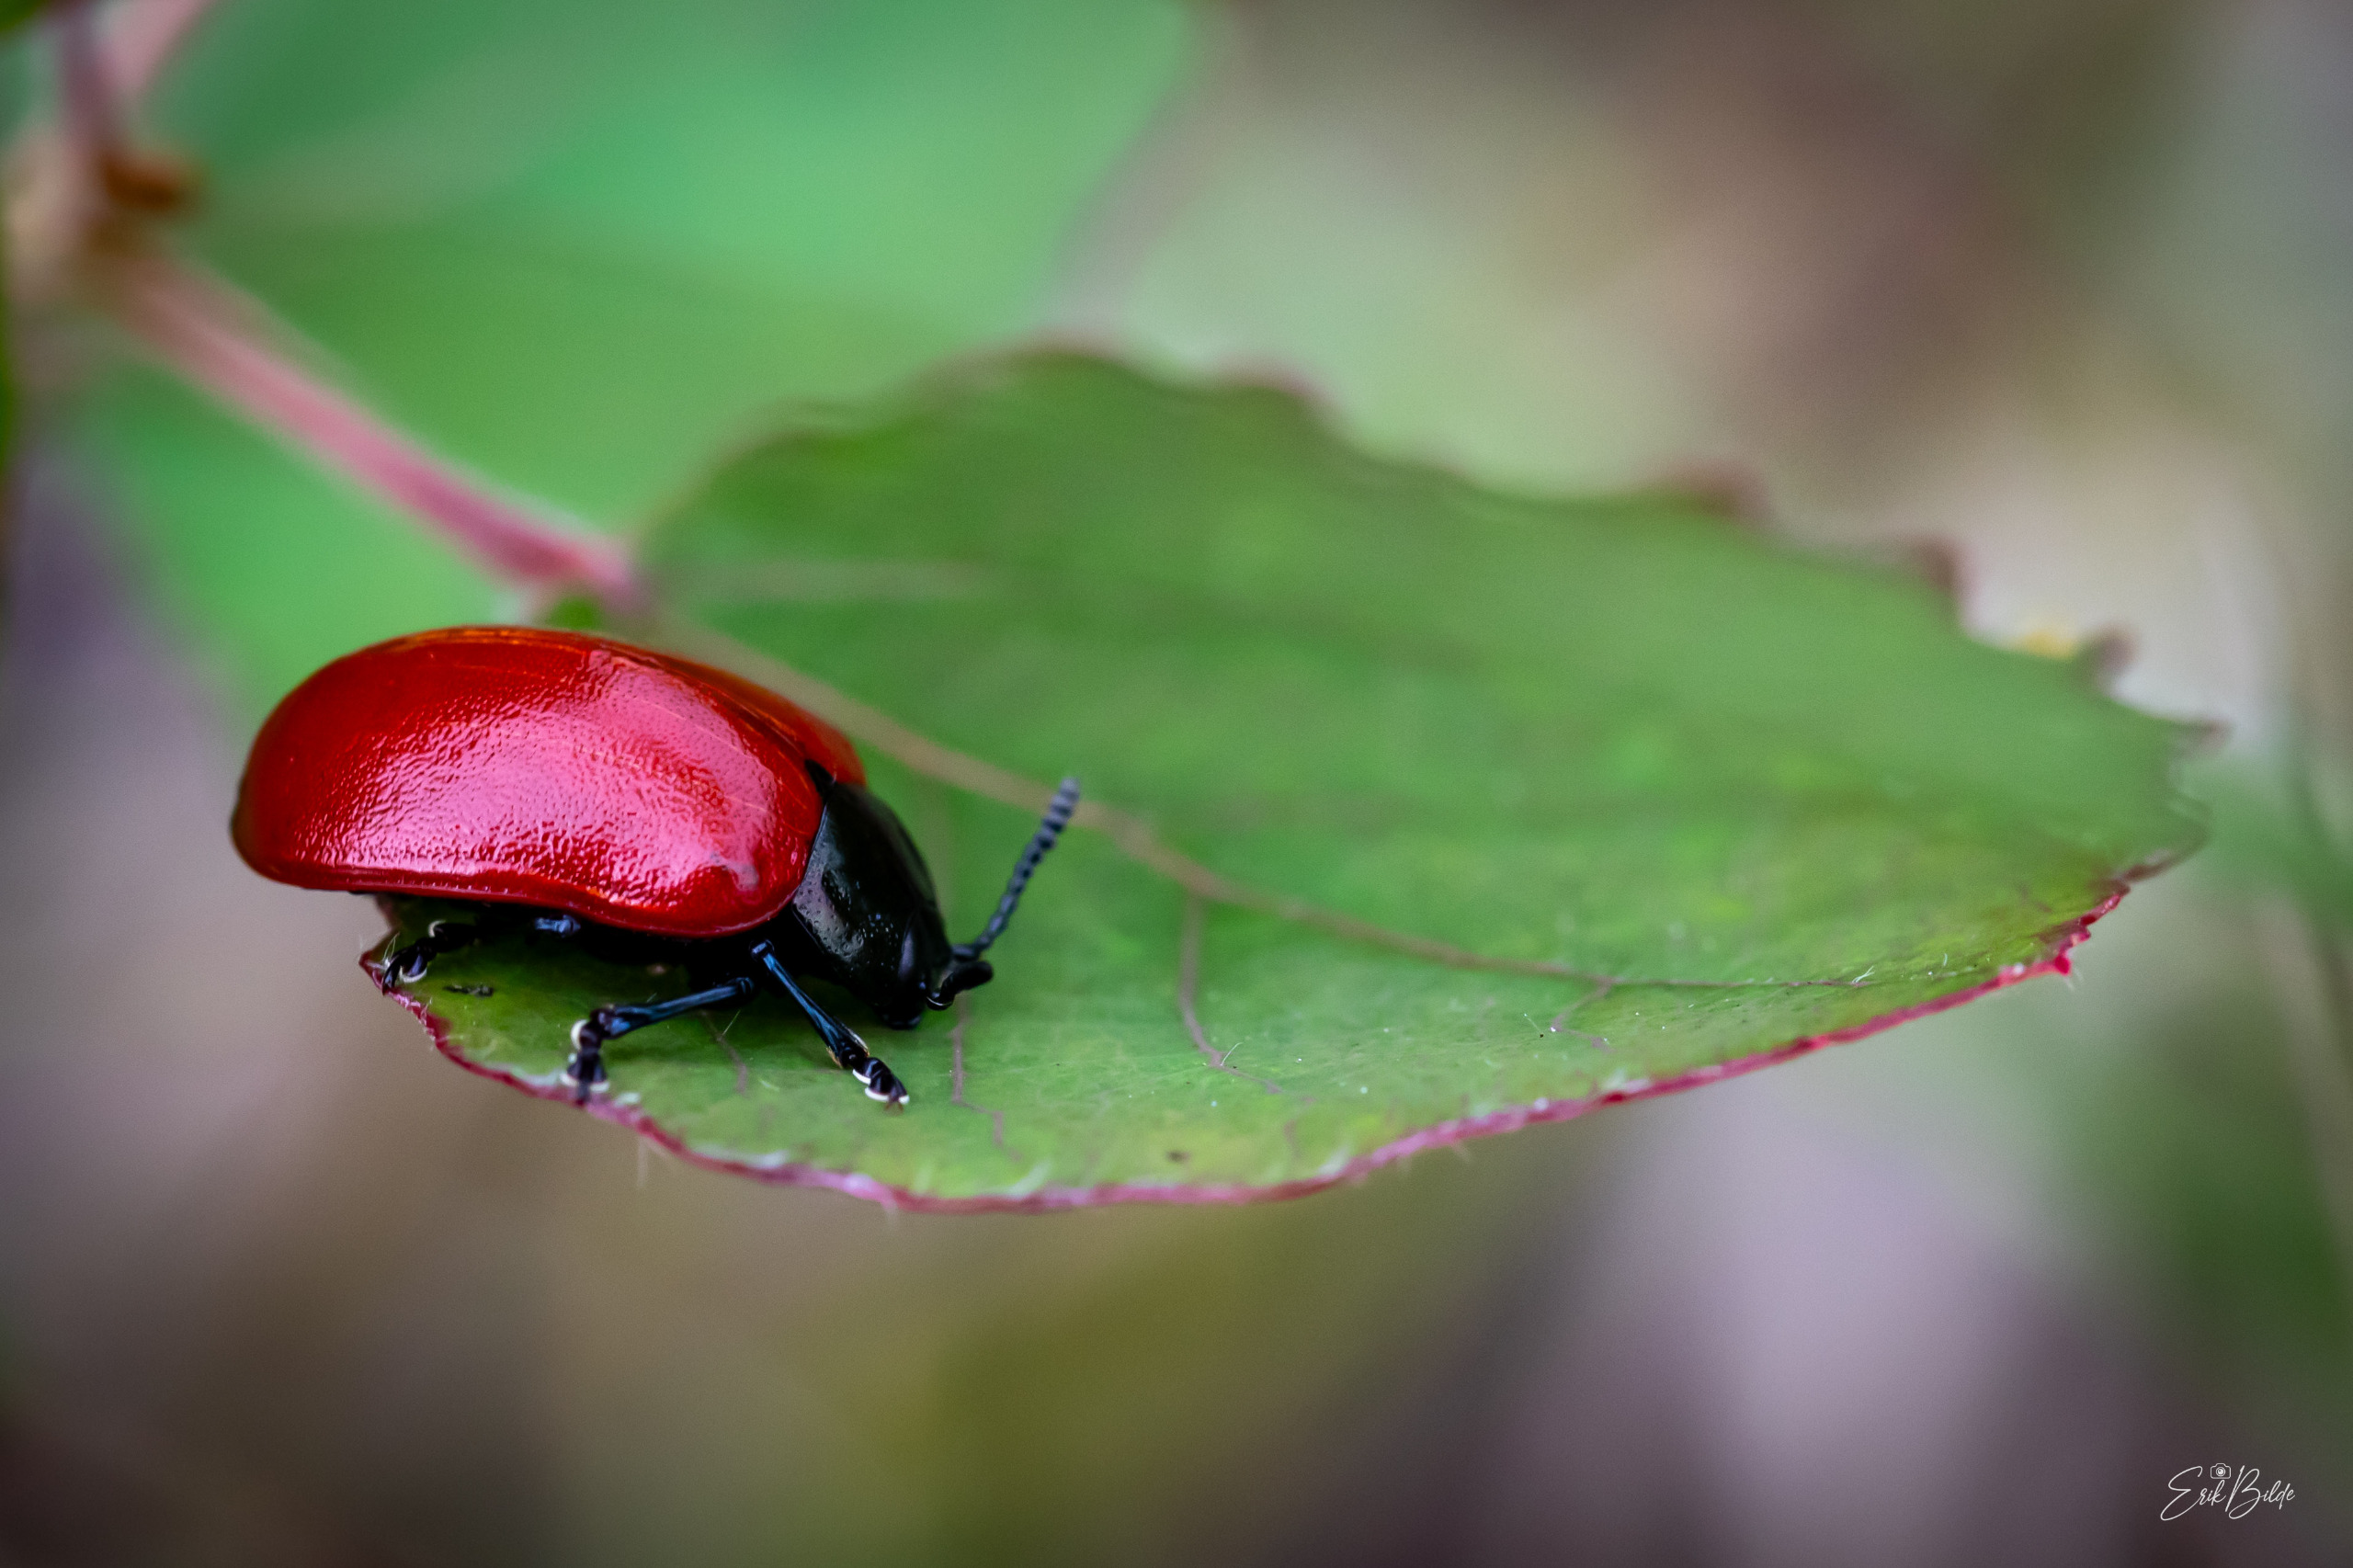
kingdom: Animalia
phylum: Arthropoda
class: Insecta
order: Coleoptera
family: Chrysomelidae
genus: Chrysomela
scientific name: Chrysomela populi
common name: Poppelbladbille
